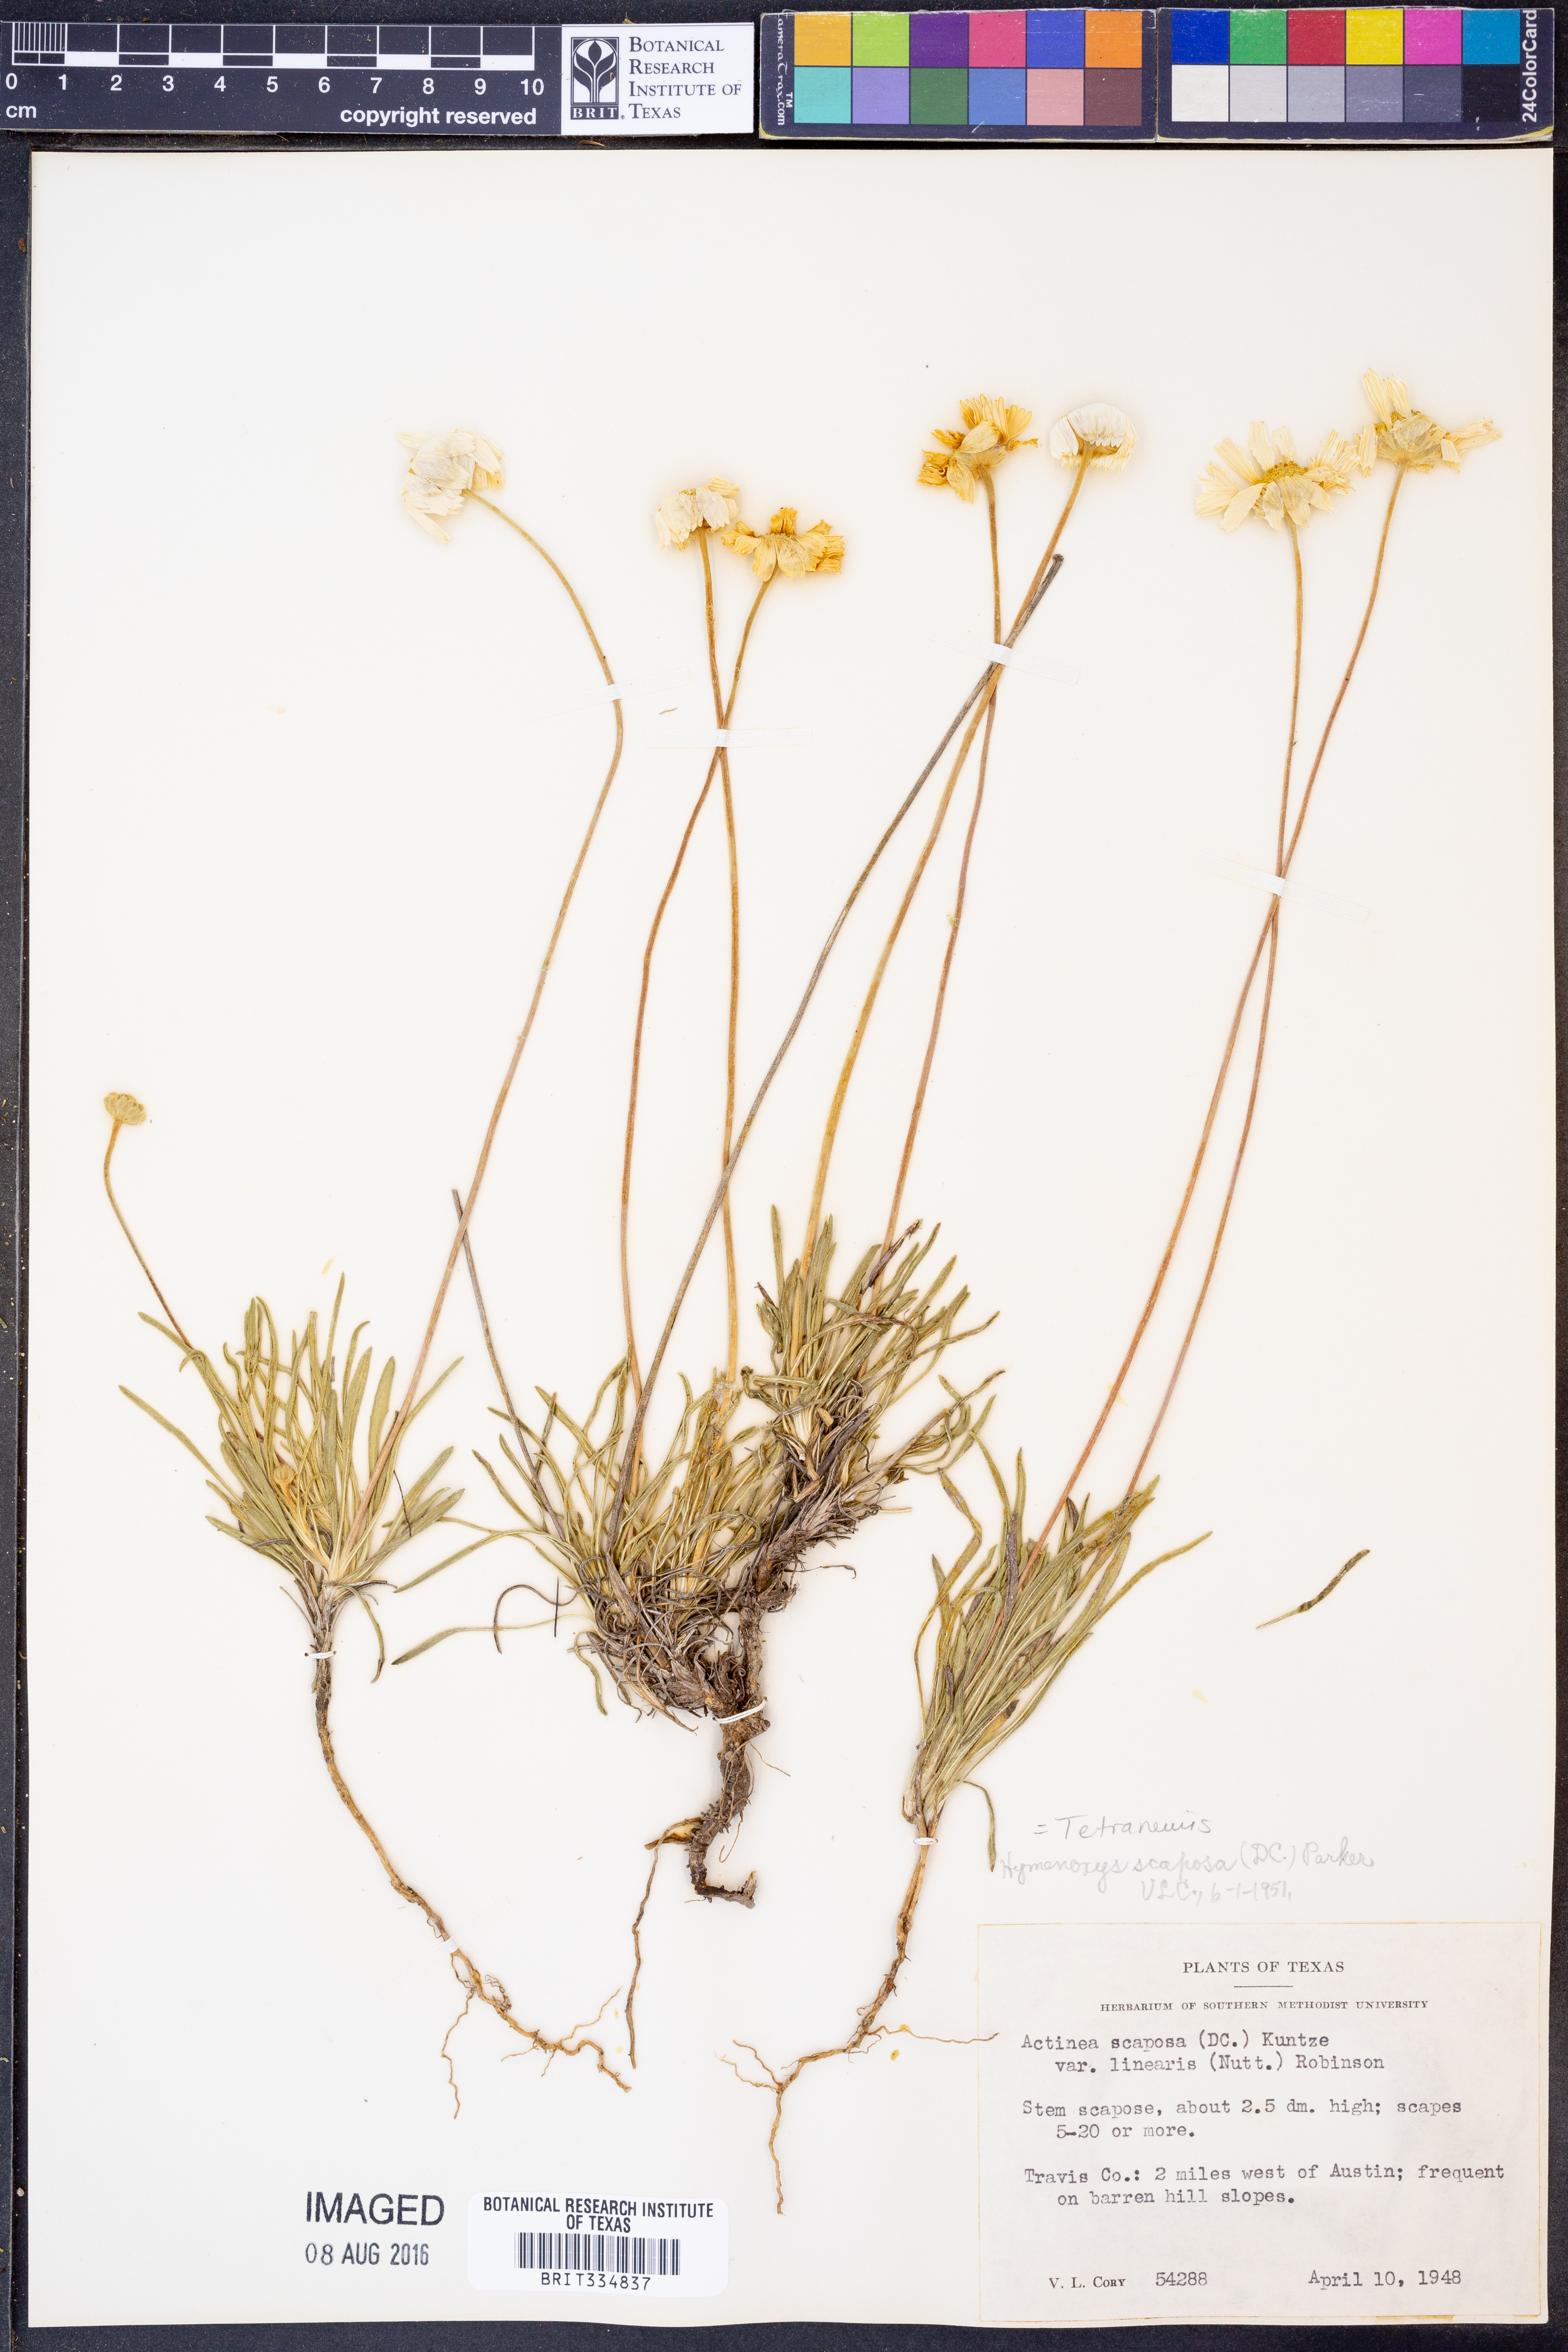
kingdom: Plantae
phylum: Tracheophyta
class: Magnoliopsida
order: Asterales
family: Asteraceae
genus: Tetraneuris
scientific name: Tetraneuris scaposa
